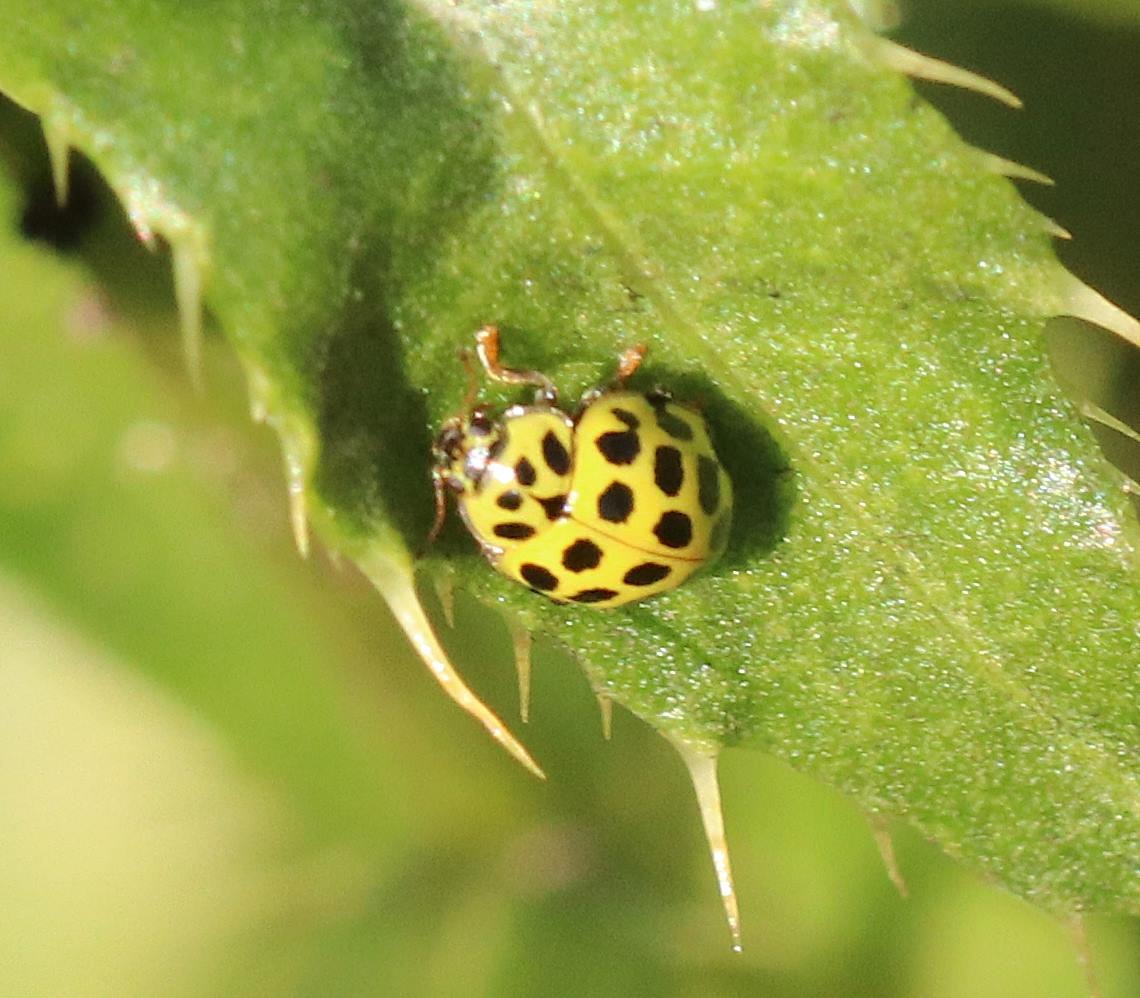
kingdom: Animalia
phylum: Arthropoda
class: Insecta
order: Coleoptera
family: Coccinellidae
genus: Psyllobora
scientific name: Psyllobora vigintiduopunctata
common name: Toogtyveplettet mariehøne
